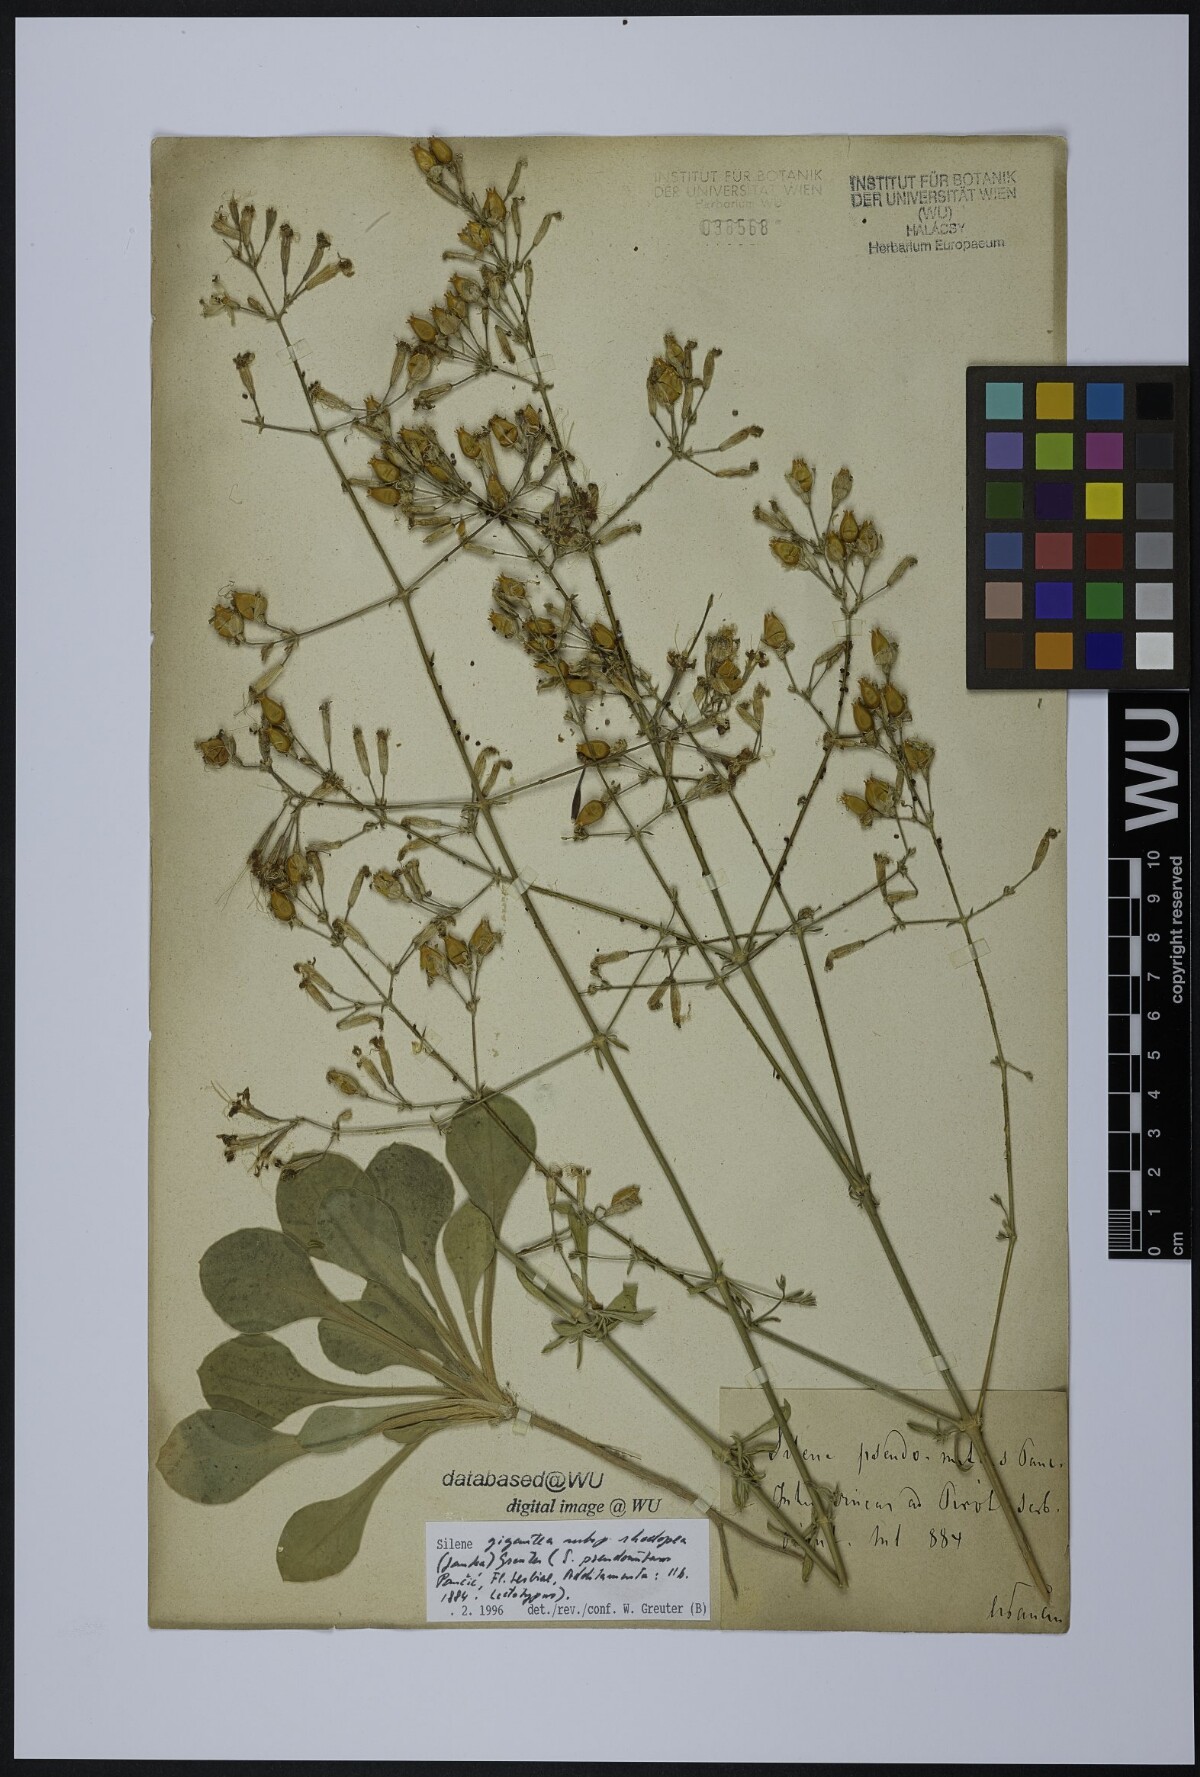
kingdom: Plantae
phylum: Tracheophyta
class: Magnoliopsida
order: Caryophyllales
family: Caryophyllaceae
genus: Silene
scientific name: Silene
